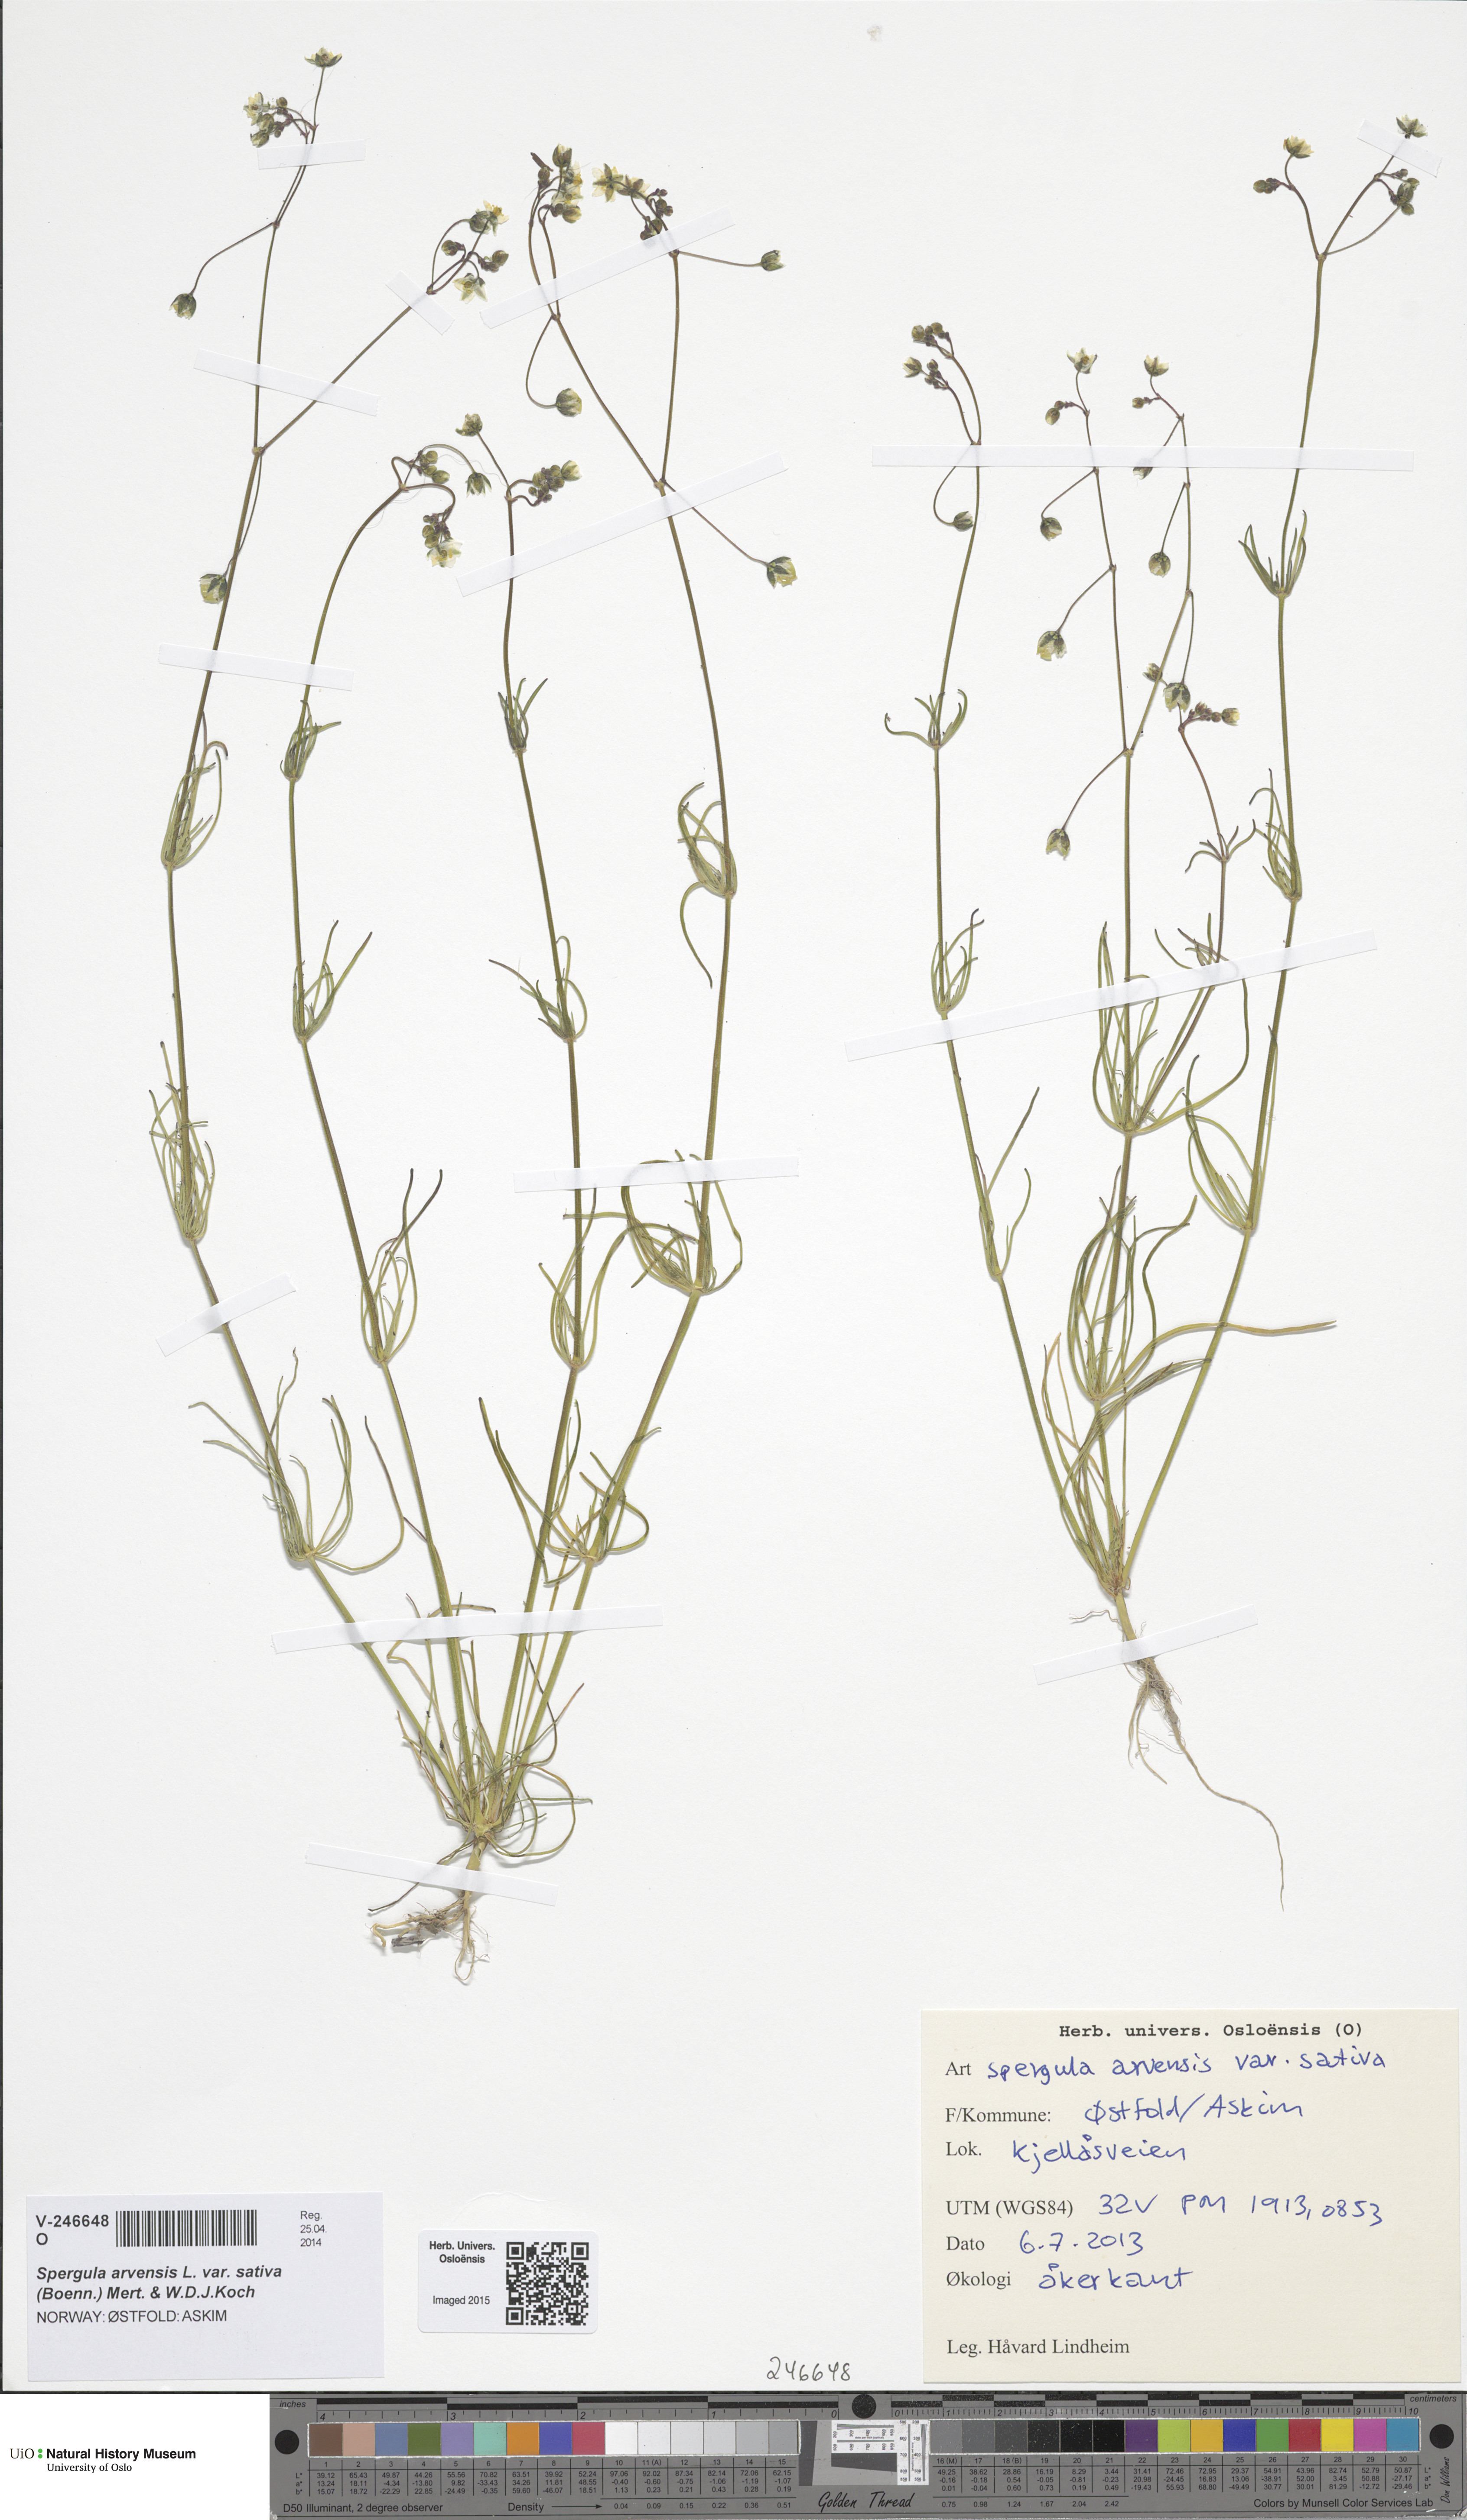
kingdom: Plantae
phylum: Tracheophyta
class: Magnoliopsida
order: Caryophyllales
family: Caryophyllaceae
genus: Spergula
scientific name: Spergula arvensis
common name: Corn spurrey
